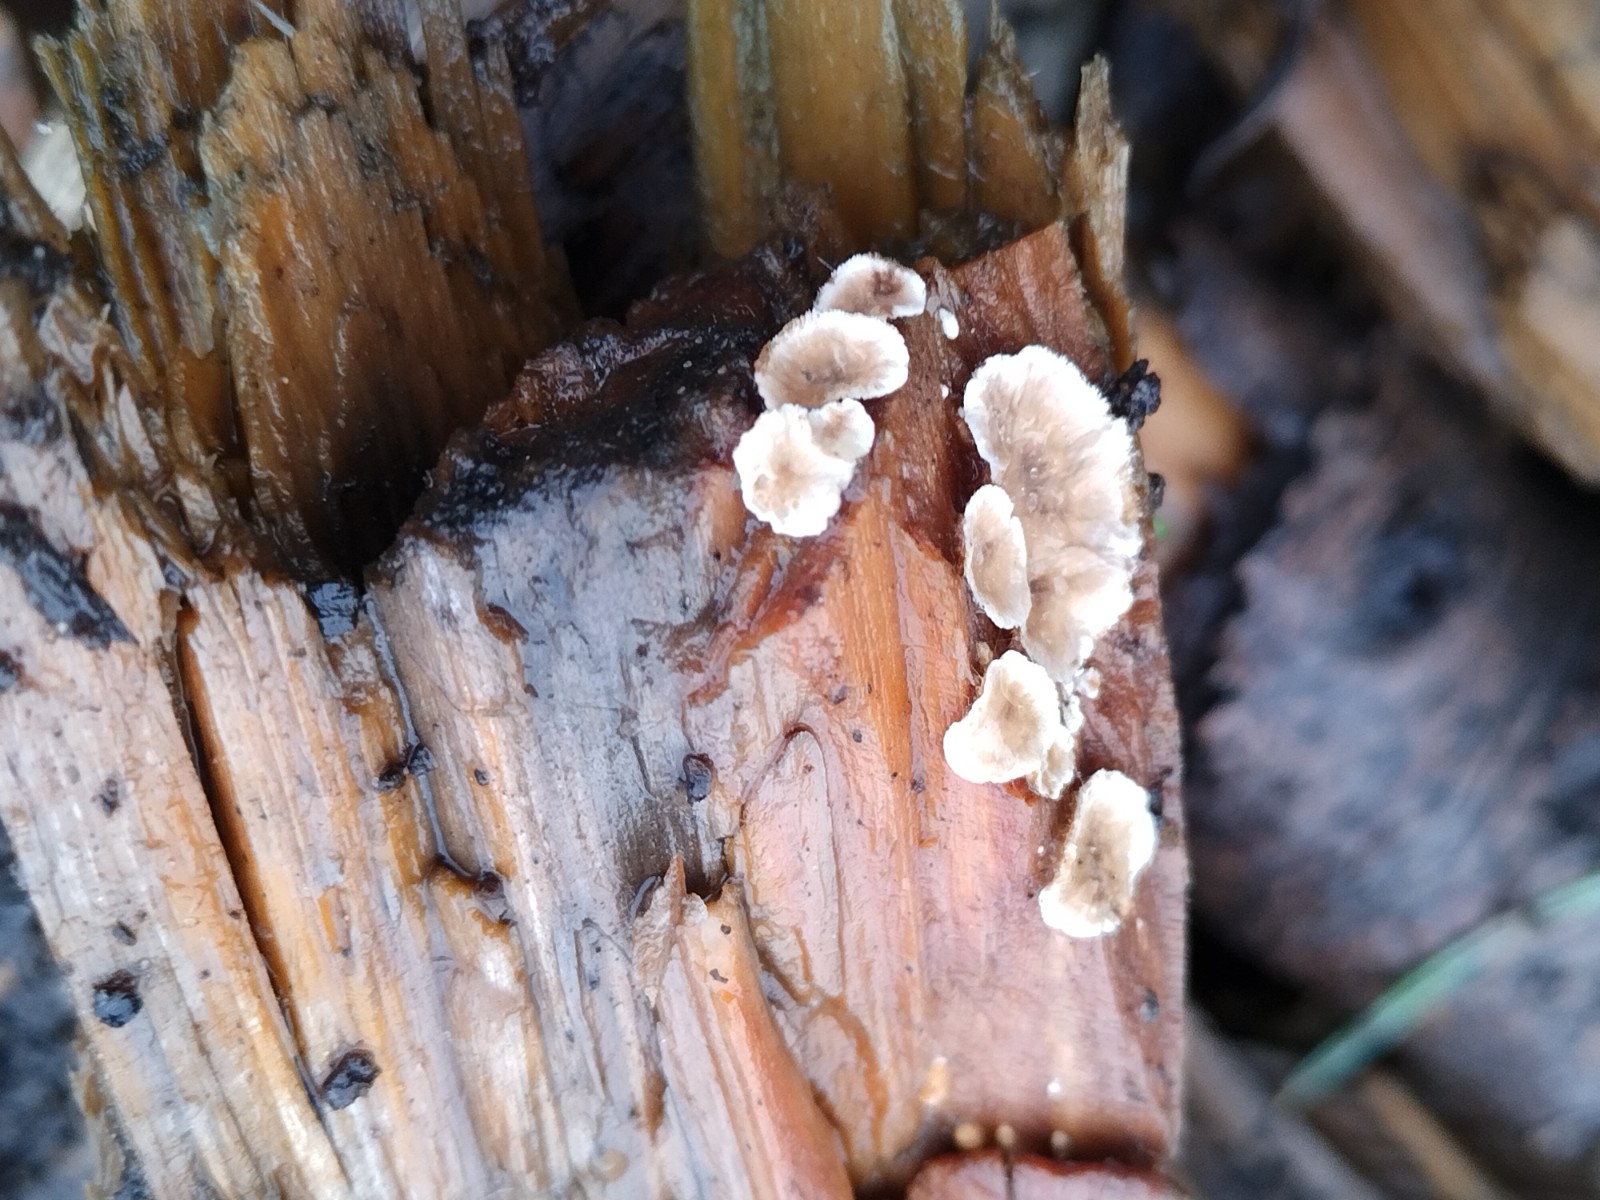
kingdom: Fungi
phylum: Basidiomycota
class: Agaricomycetes
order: Agaricales
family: Crepidotaceae
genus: Crepidotus
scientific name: Crepidotus
